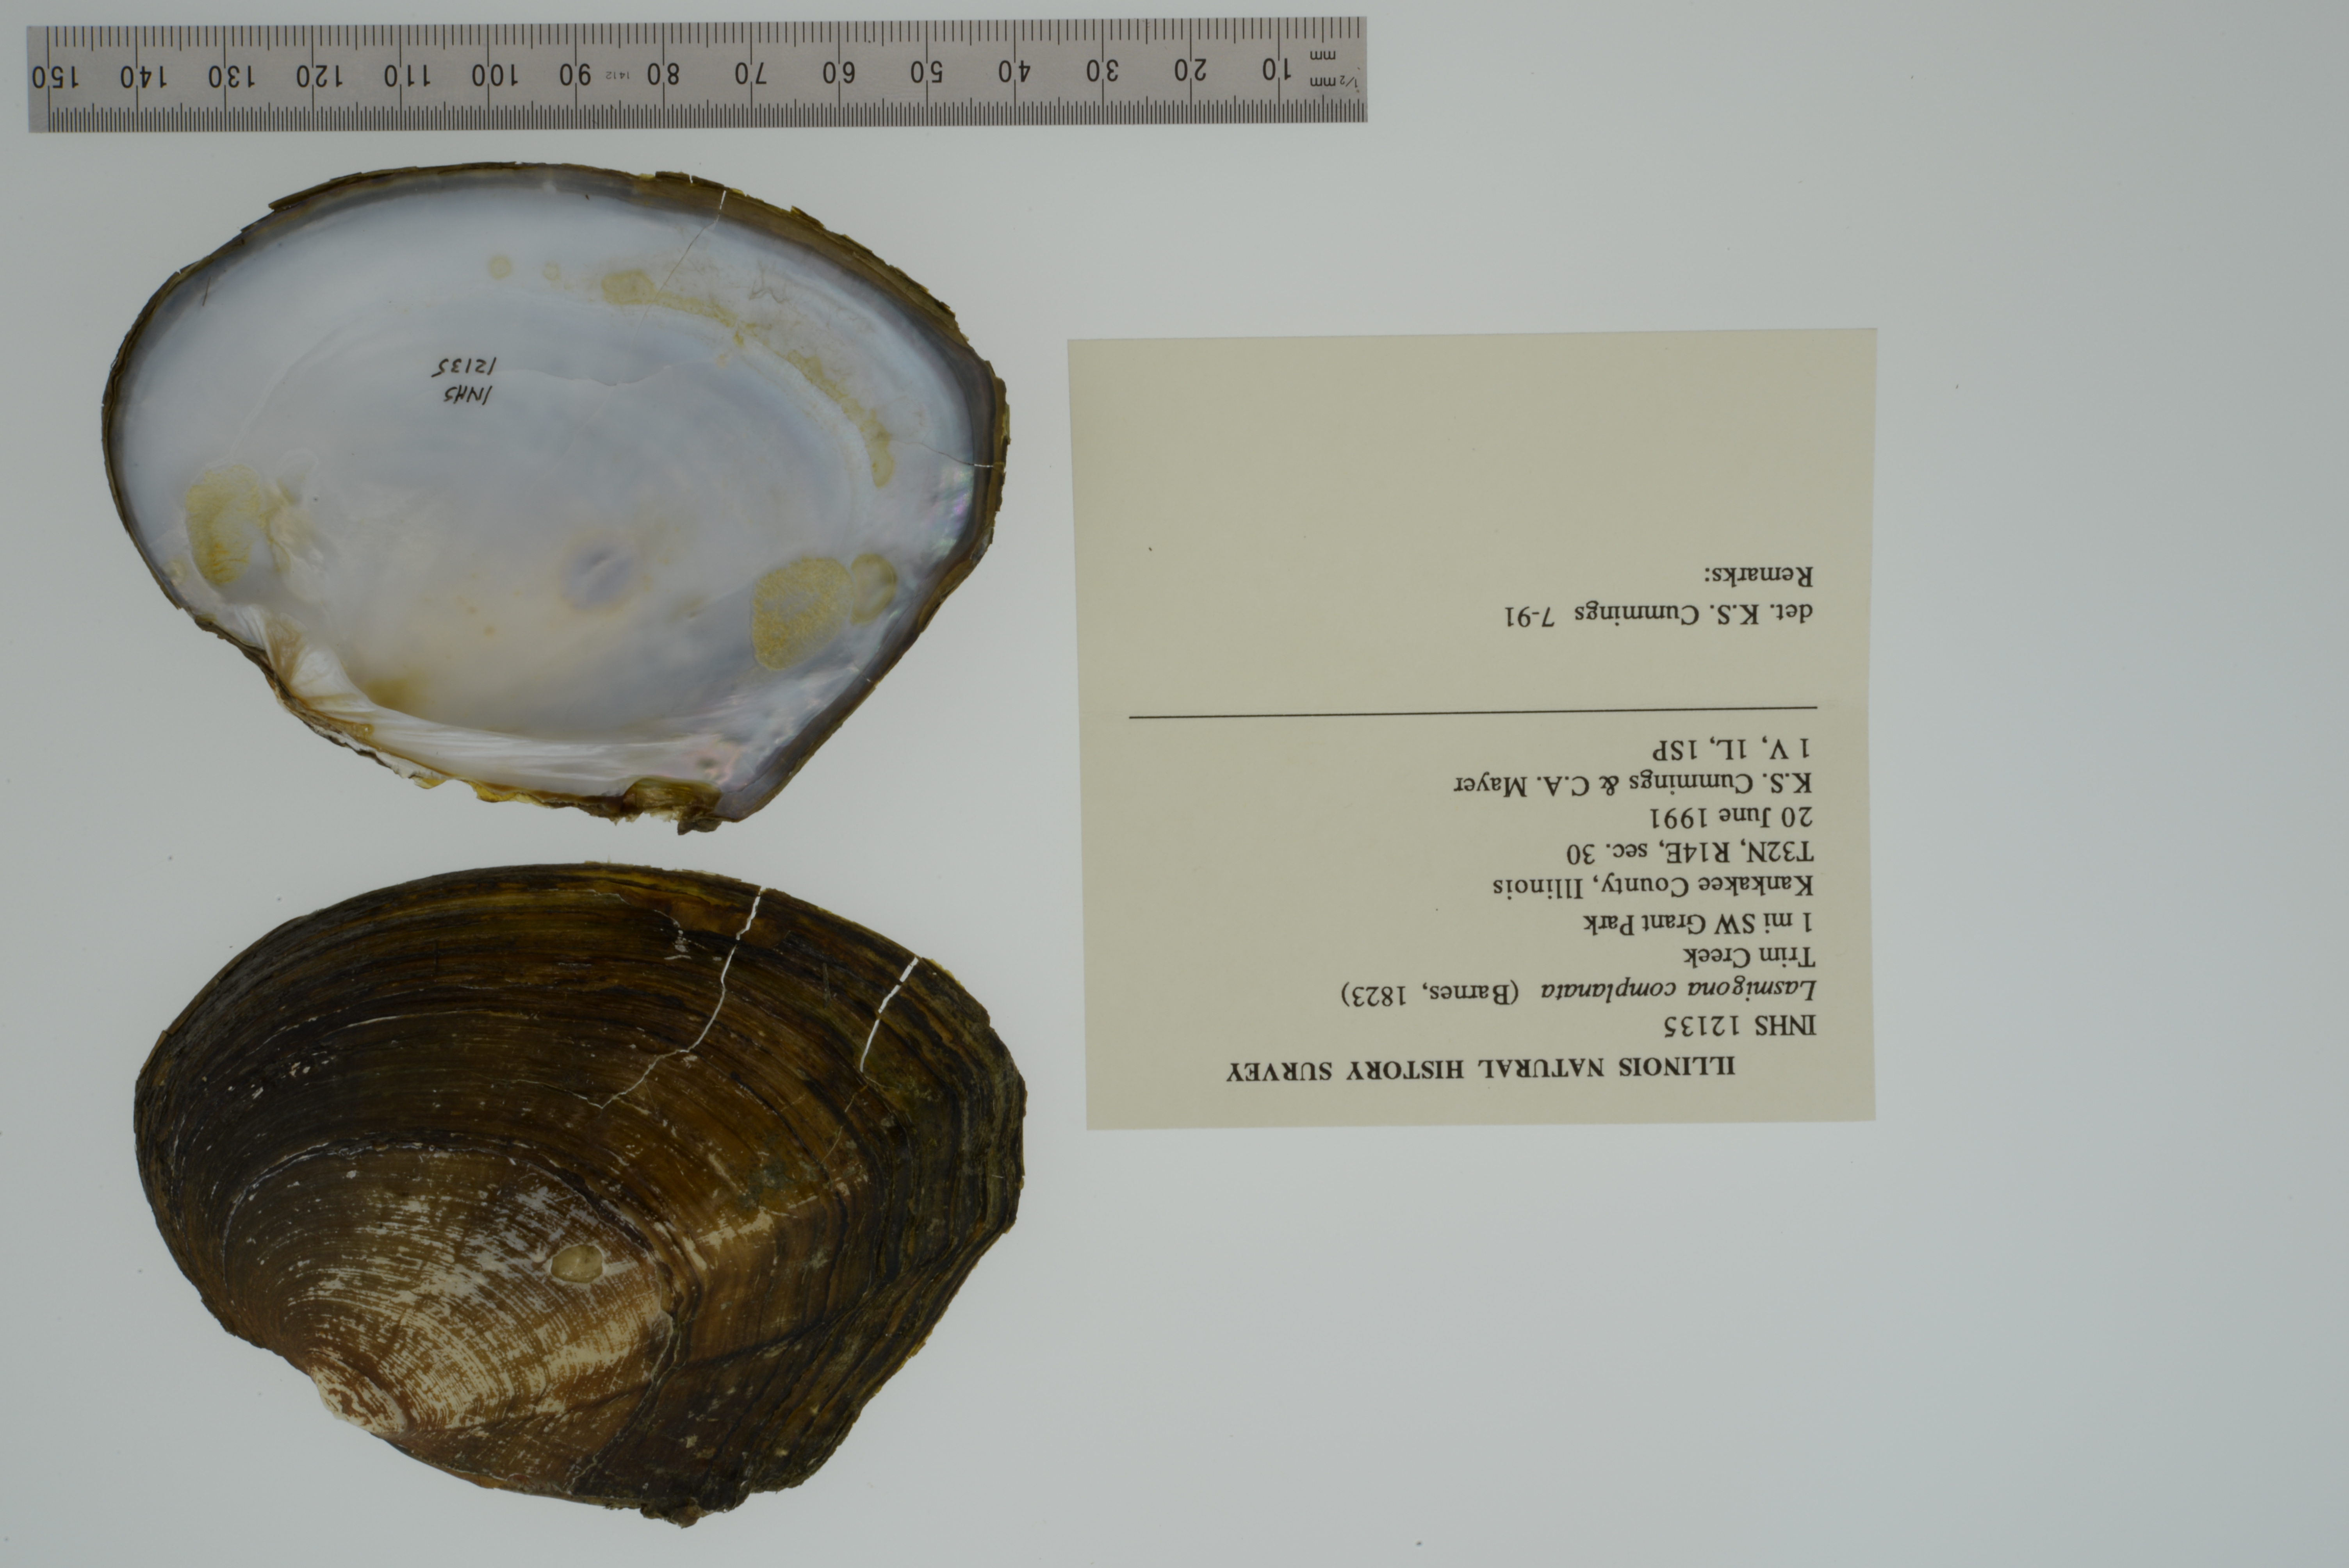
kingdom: Animalia
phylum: Mollusca
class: Bivalvia
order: Unionida
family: Unionidae
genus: Lasmigona
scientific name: Lasmigona complanata
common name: White heelsplitter
